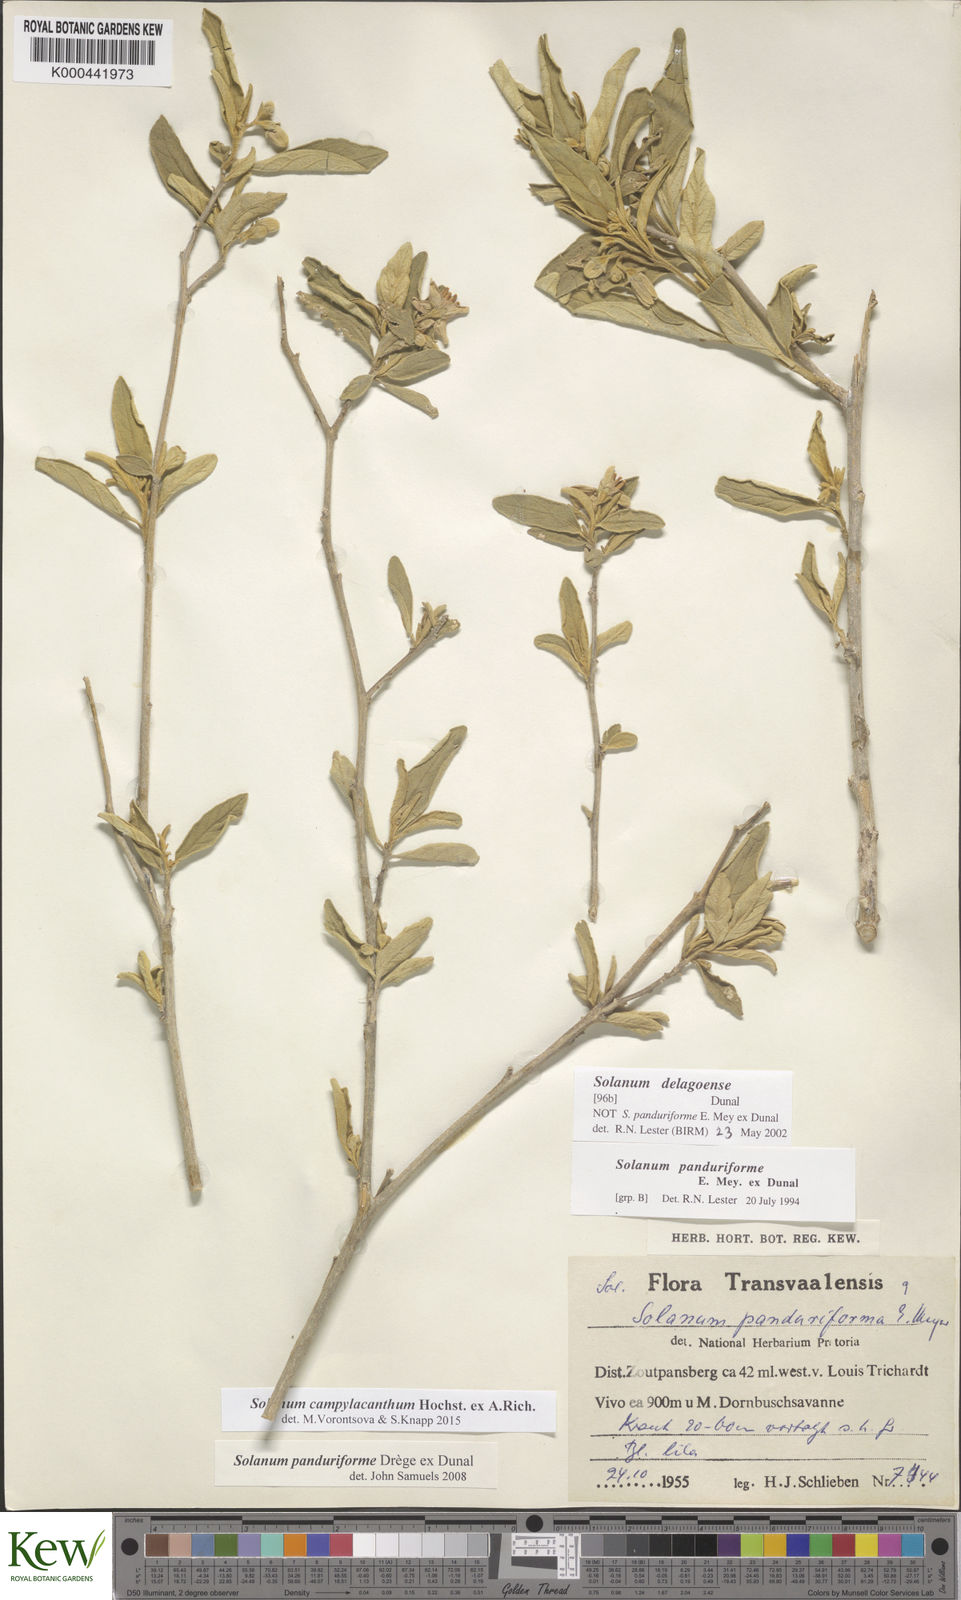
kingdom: Plantae
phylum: Tracheophyta
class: Magnoliopsida
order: Solanales
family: Solanaceae
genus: Solanum
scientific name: Solanum campylacanthum
